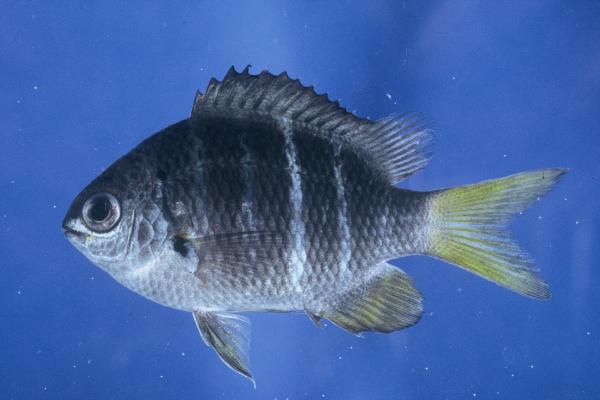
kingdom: Animalia
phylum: Chordata
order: Perciformes
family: Pomacentridae
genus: Abudefduf
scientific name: Abudefduf notatus
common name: Yellow-tail sergeant
